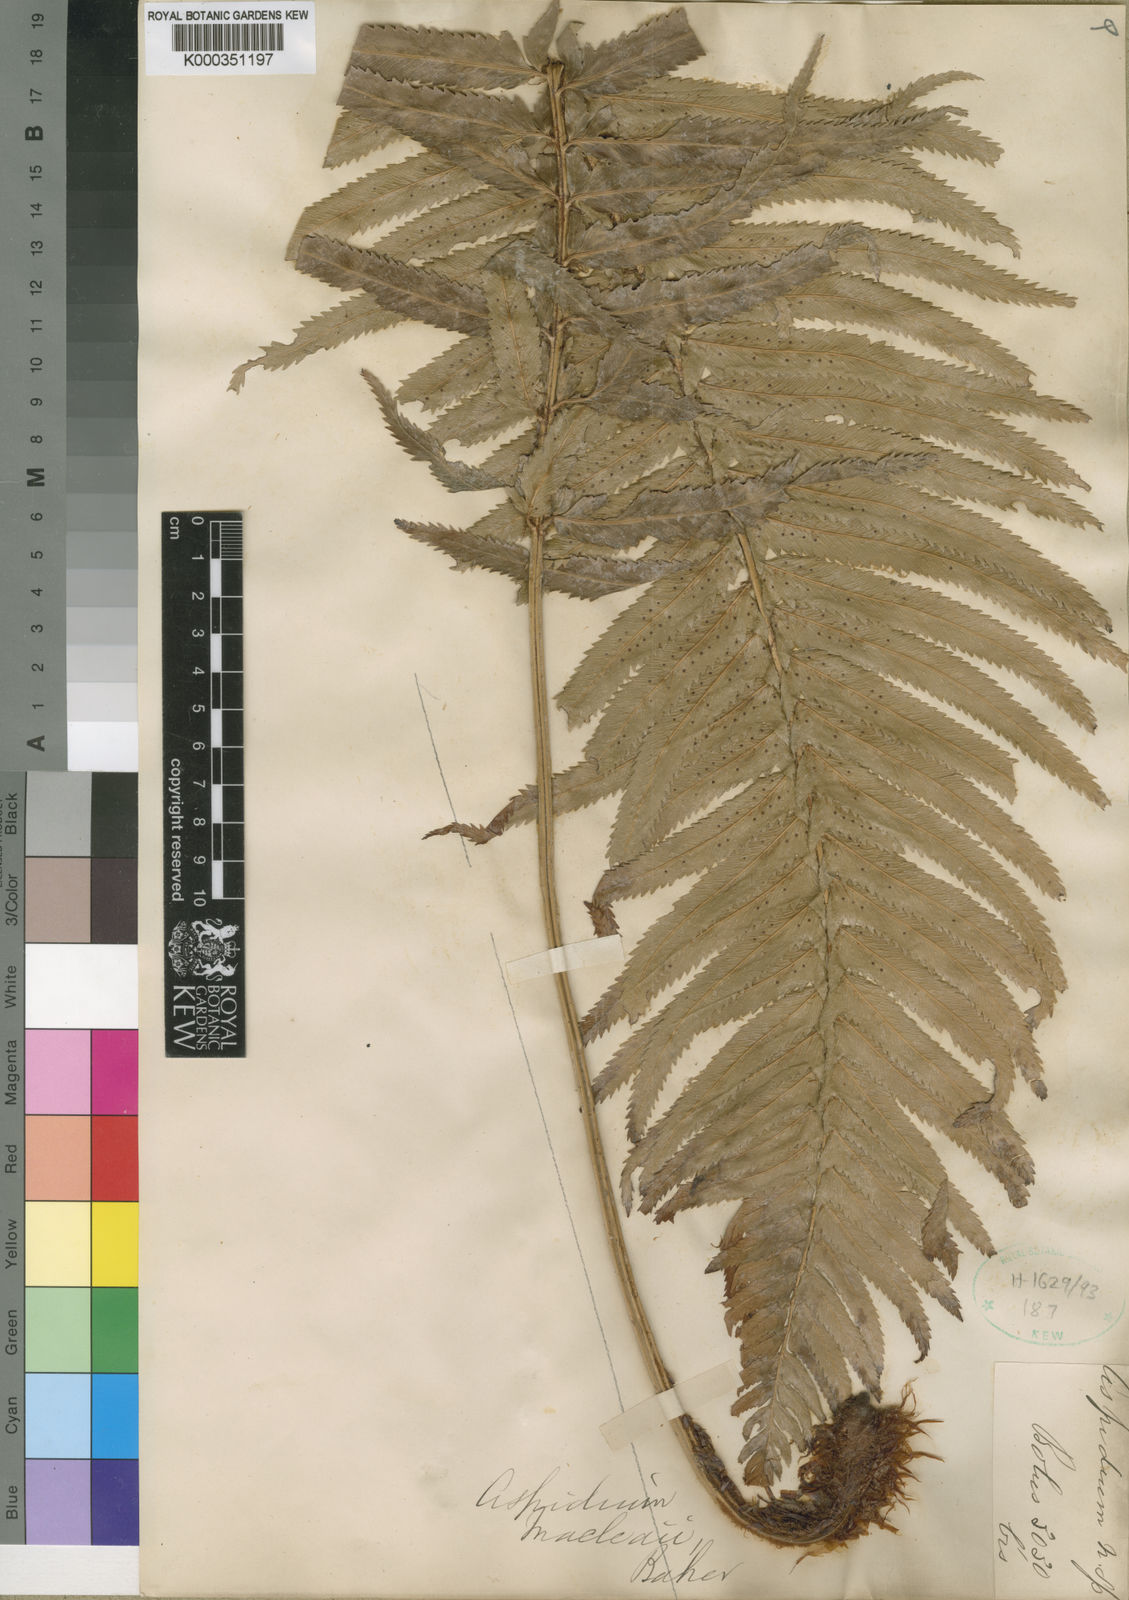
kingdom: Plantae
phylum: Tracheophyta
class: Polypodiopsida
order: Polypodiales
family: Dryopteridaceae
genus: Polystichum
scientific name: Polystichum
